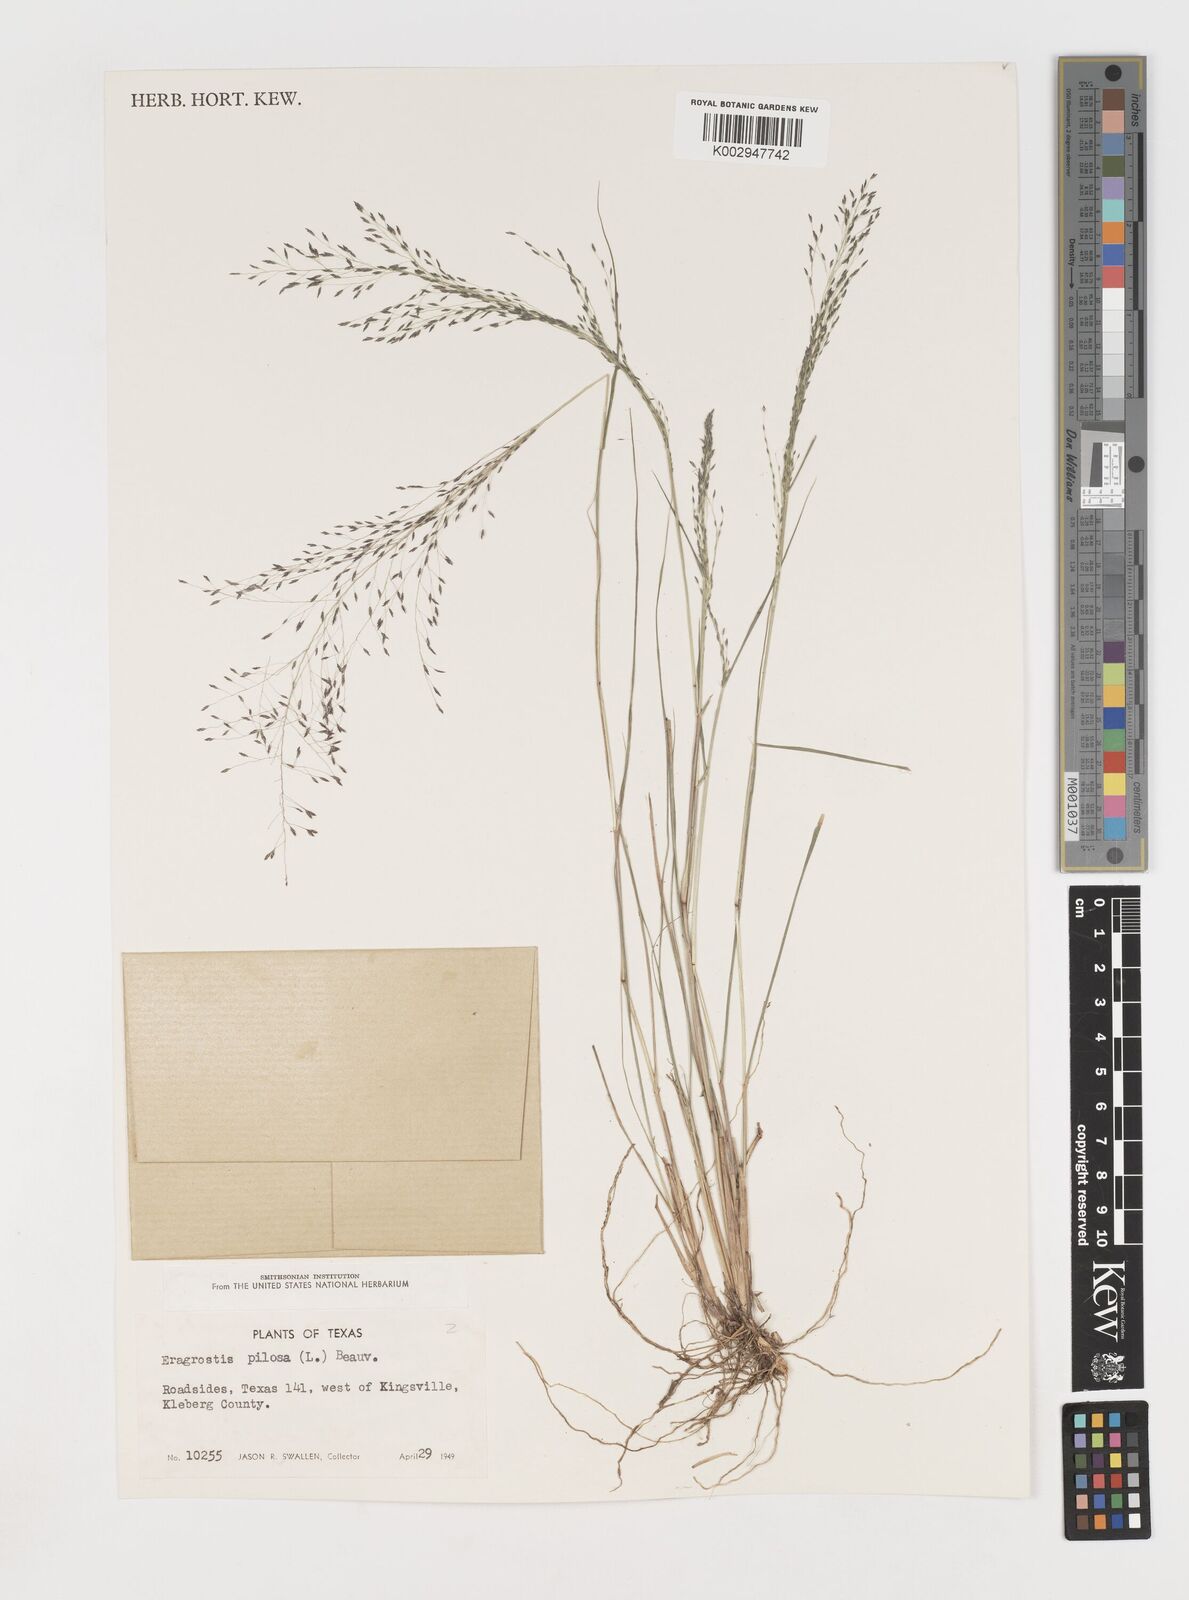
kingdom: Plantae
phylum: Tracheophyta
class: Liliopsida
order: Poales
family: Poaceae
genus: Eragrostis
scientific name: Eragrostis pilosa
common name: Indian lovegrass
